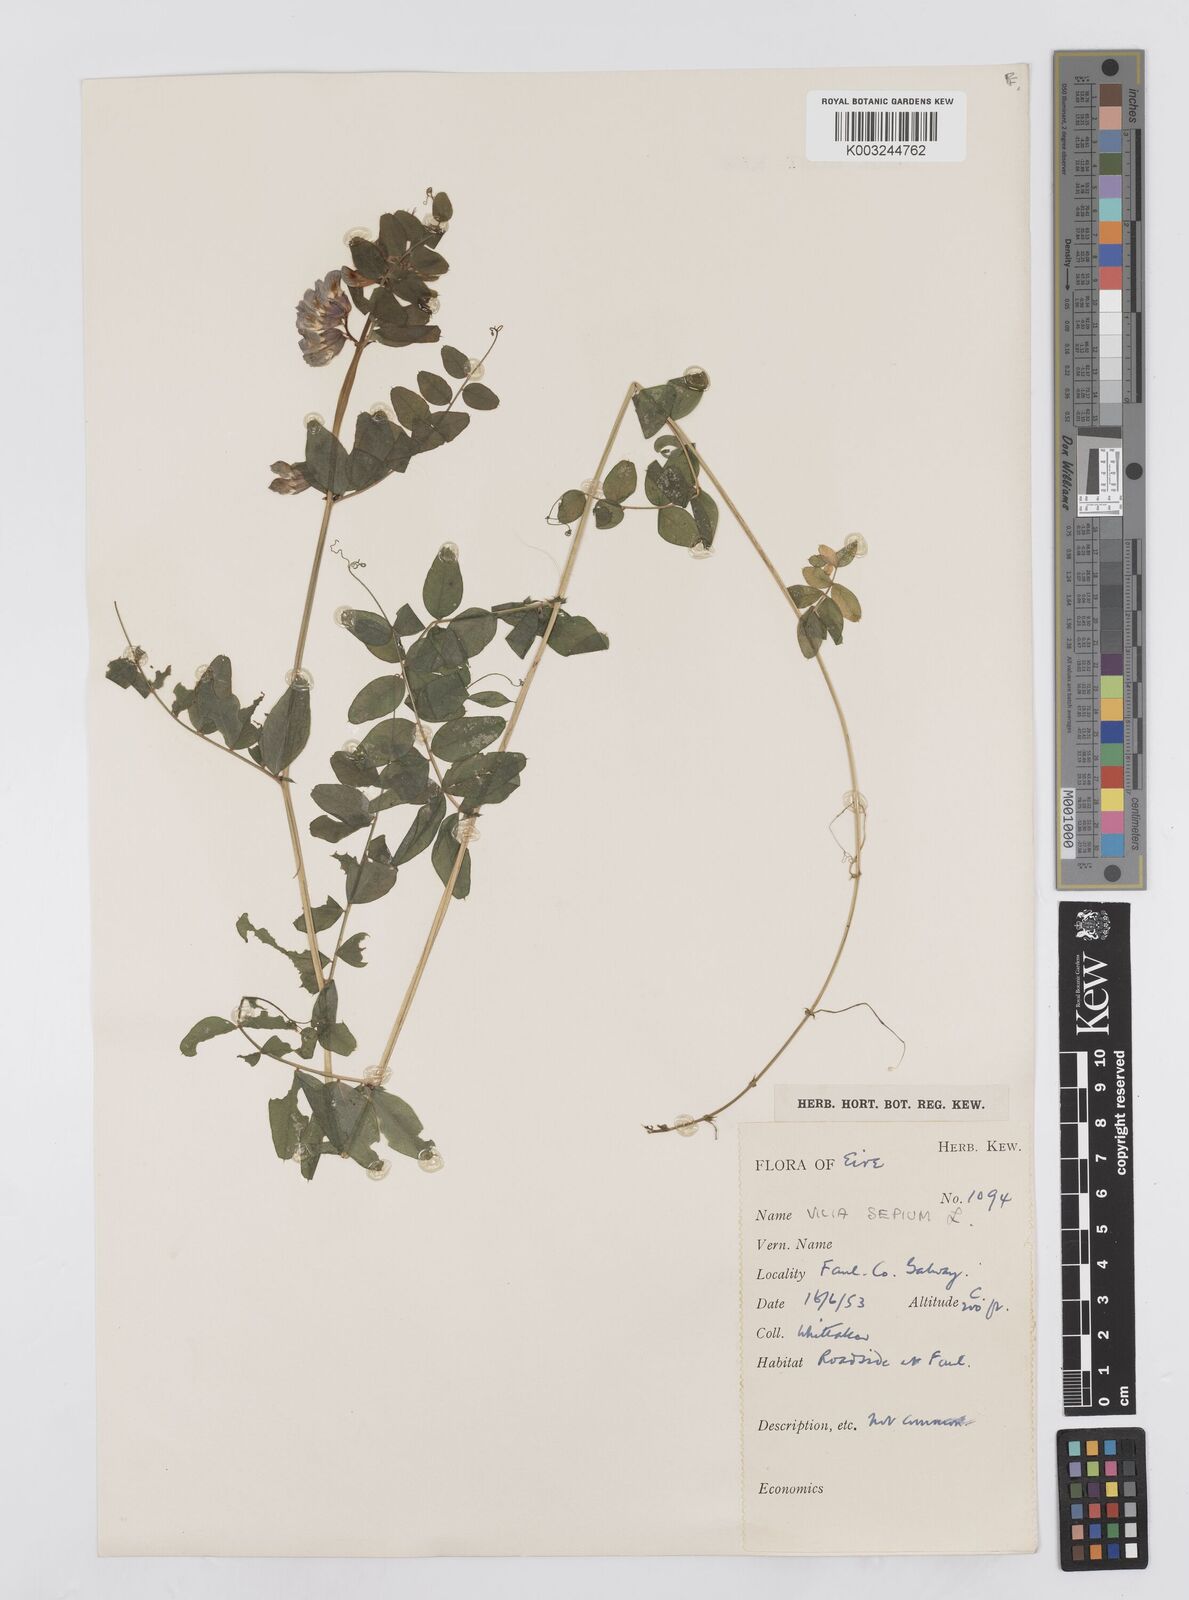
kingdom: Plantae
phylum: Tracheophyta
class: Magnoliopsida
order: Fabales
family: Fabaceae
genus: Vicia
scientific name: Vicia sepium
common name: Bush vetch
